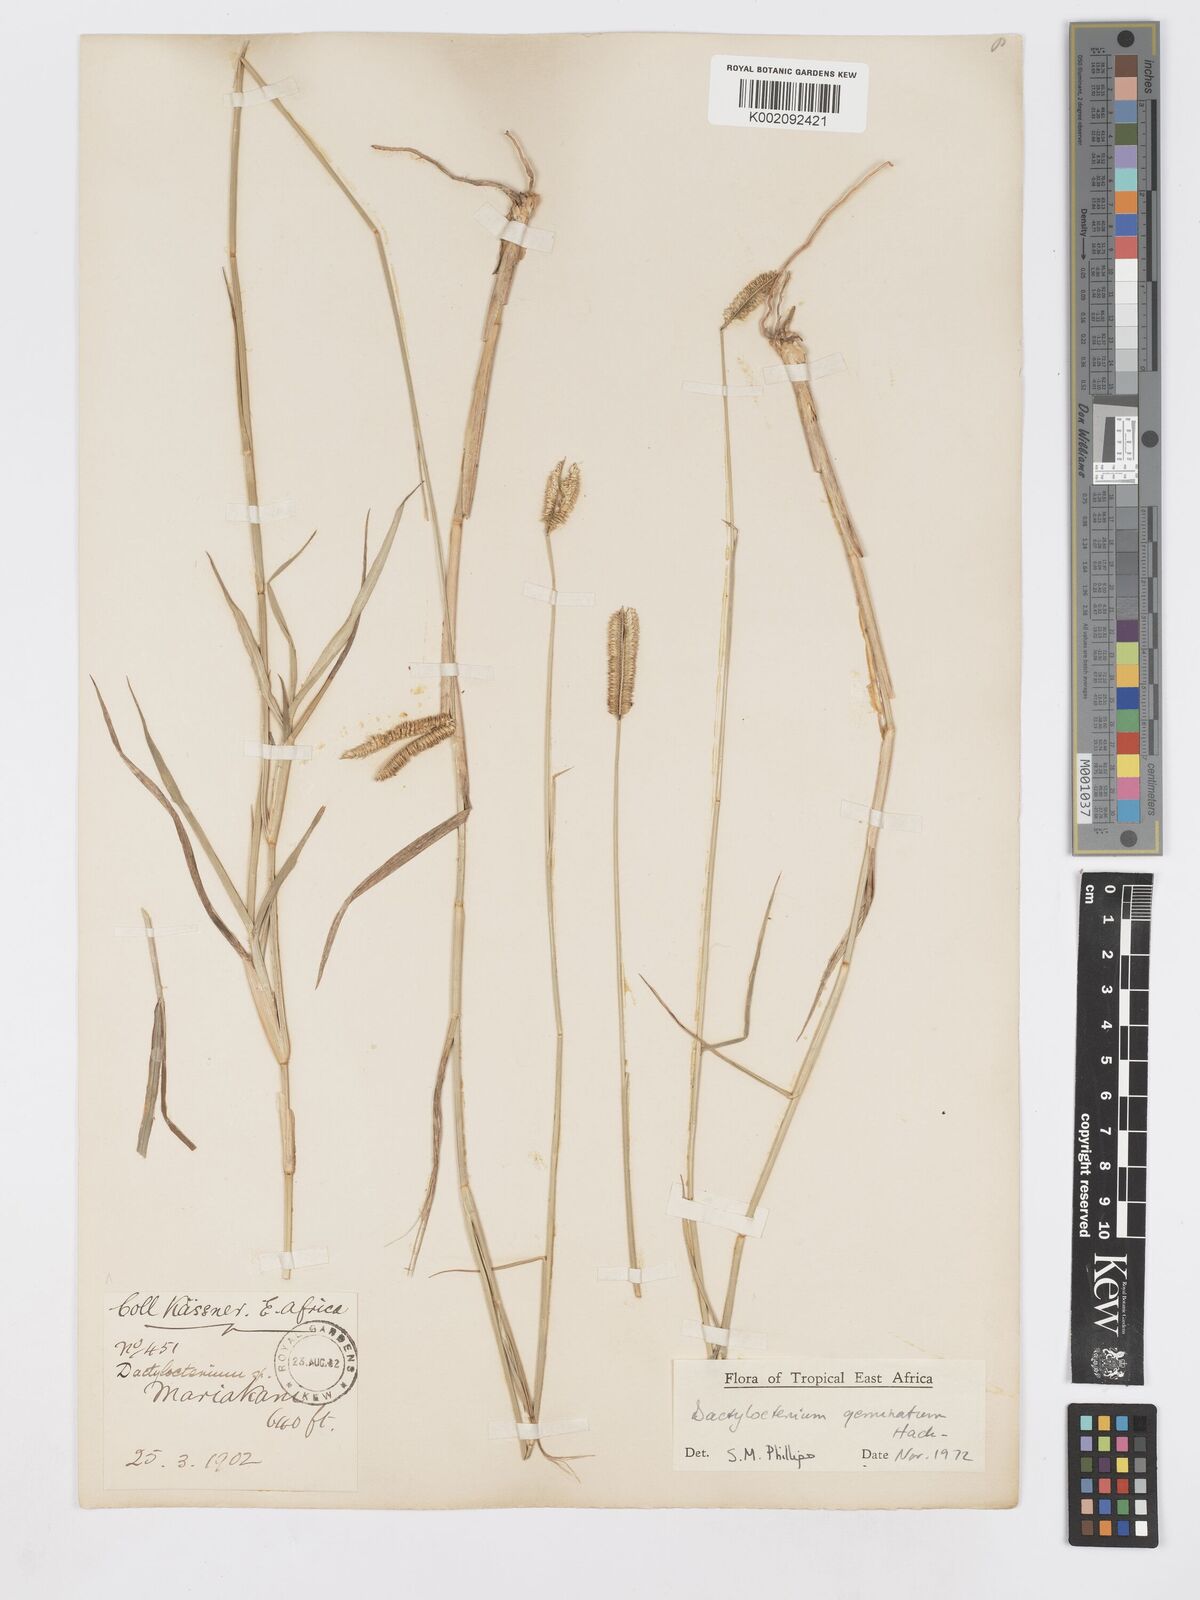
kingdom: Plantae
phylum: Tracheophyta
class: Liliopsida
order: Poales
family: Poaceae
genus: Dactyloctenium
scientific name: Dactyloctenium geminatum
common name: Crowsfoot grass
